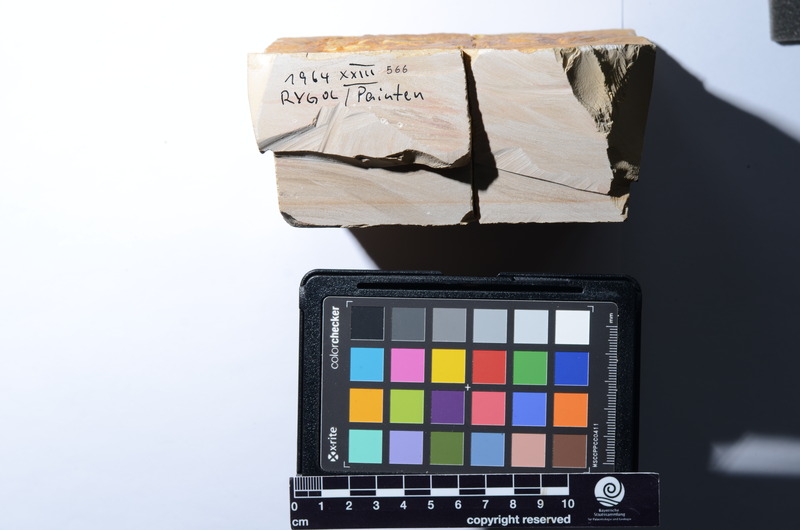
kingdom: Animalia
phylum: Chordata
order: Amiiformes
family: Caturidae
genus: Caturus
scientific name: Caturus
